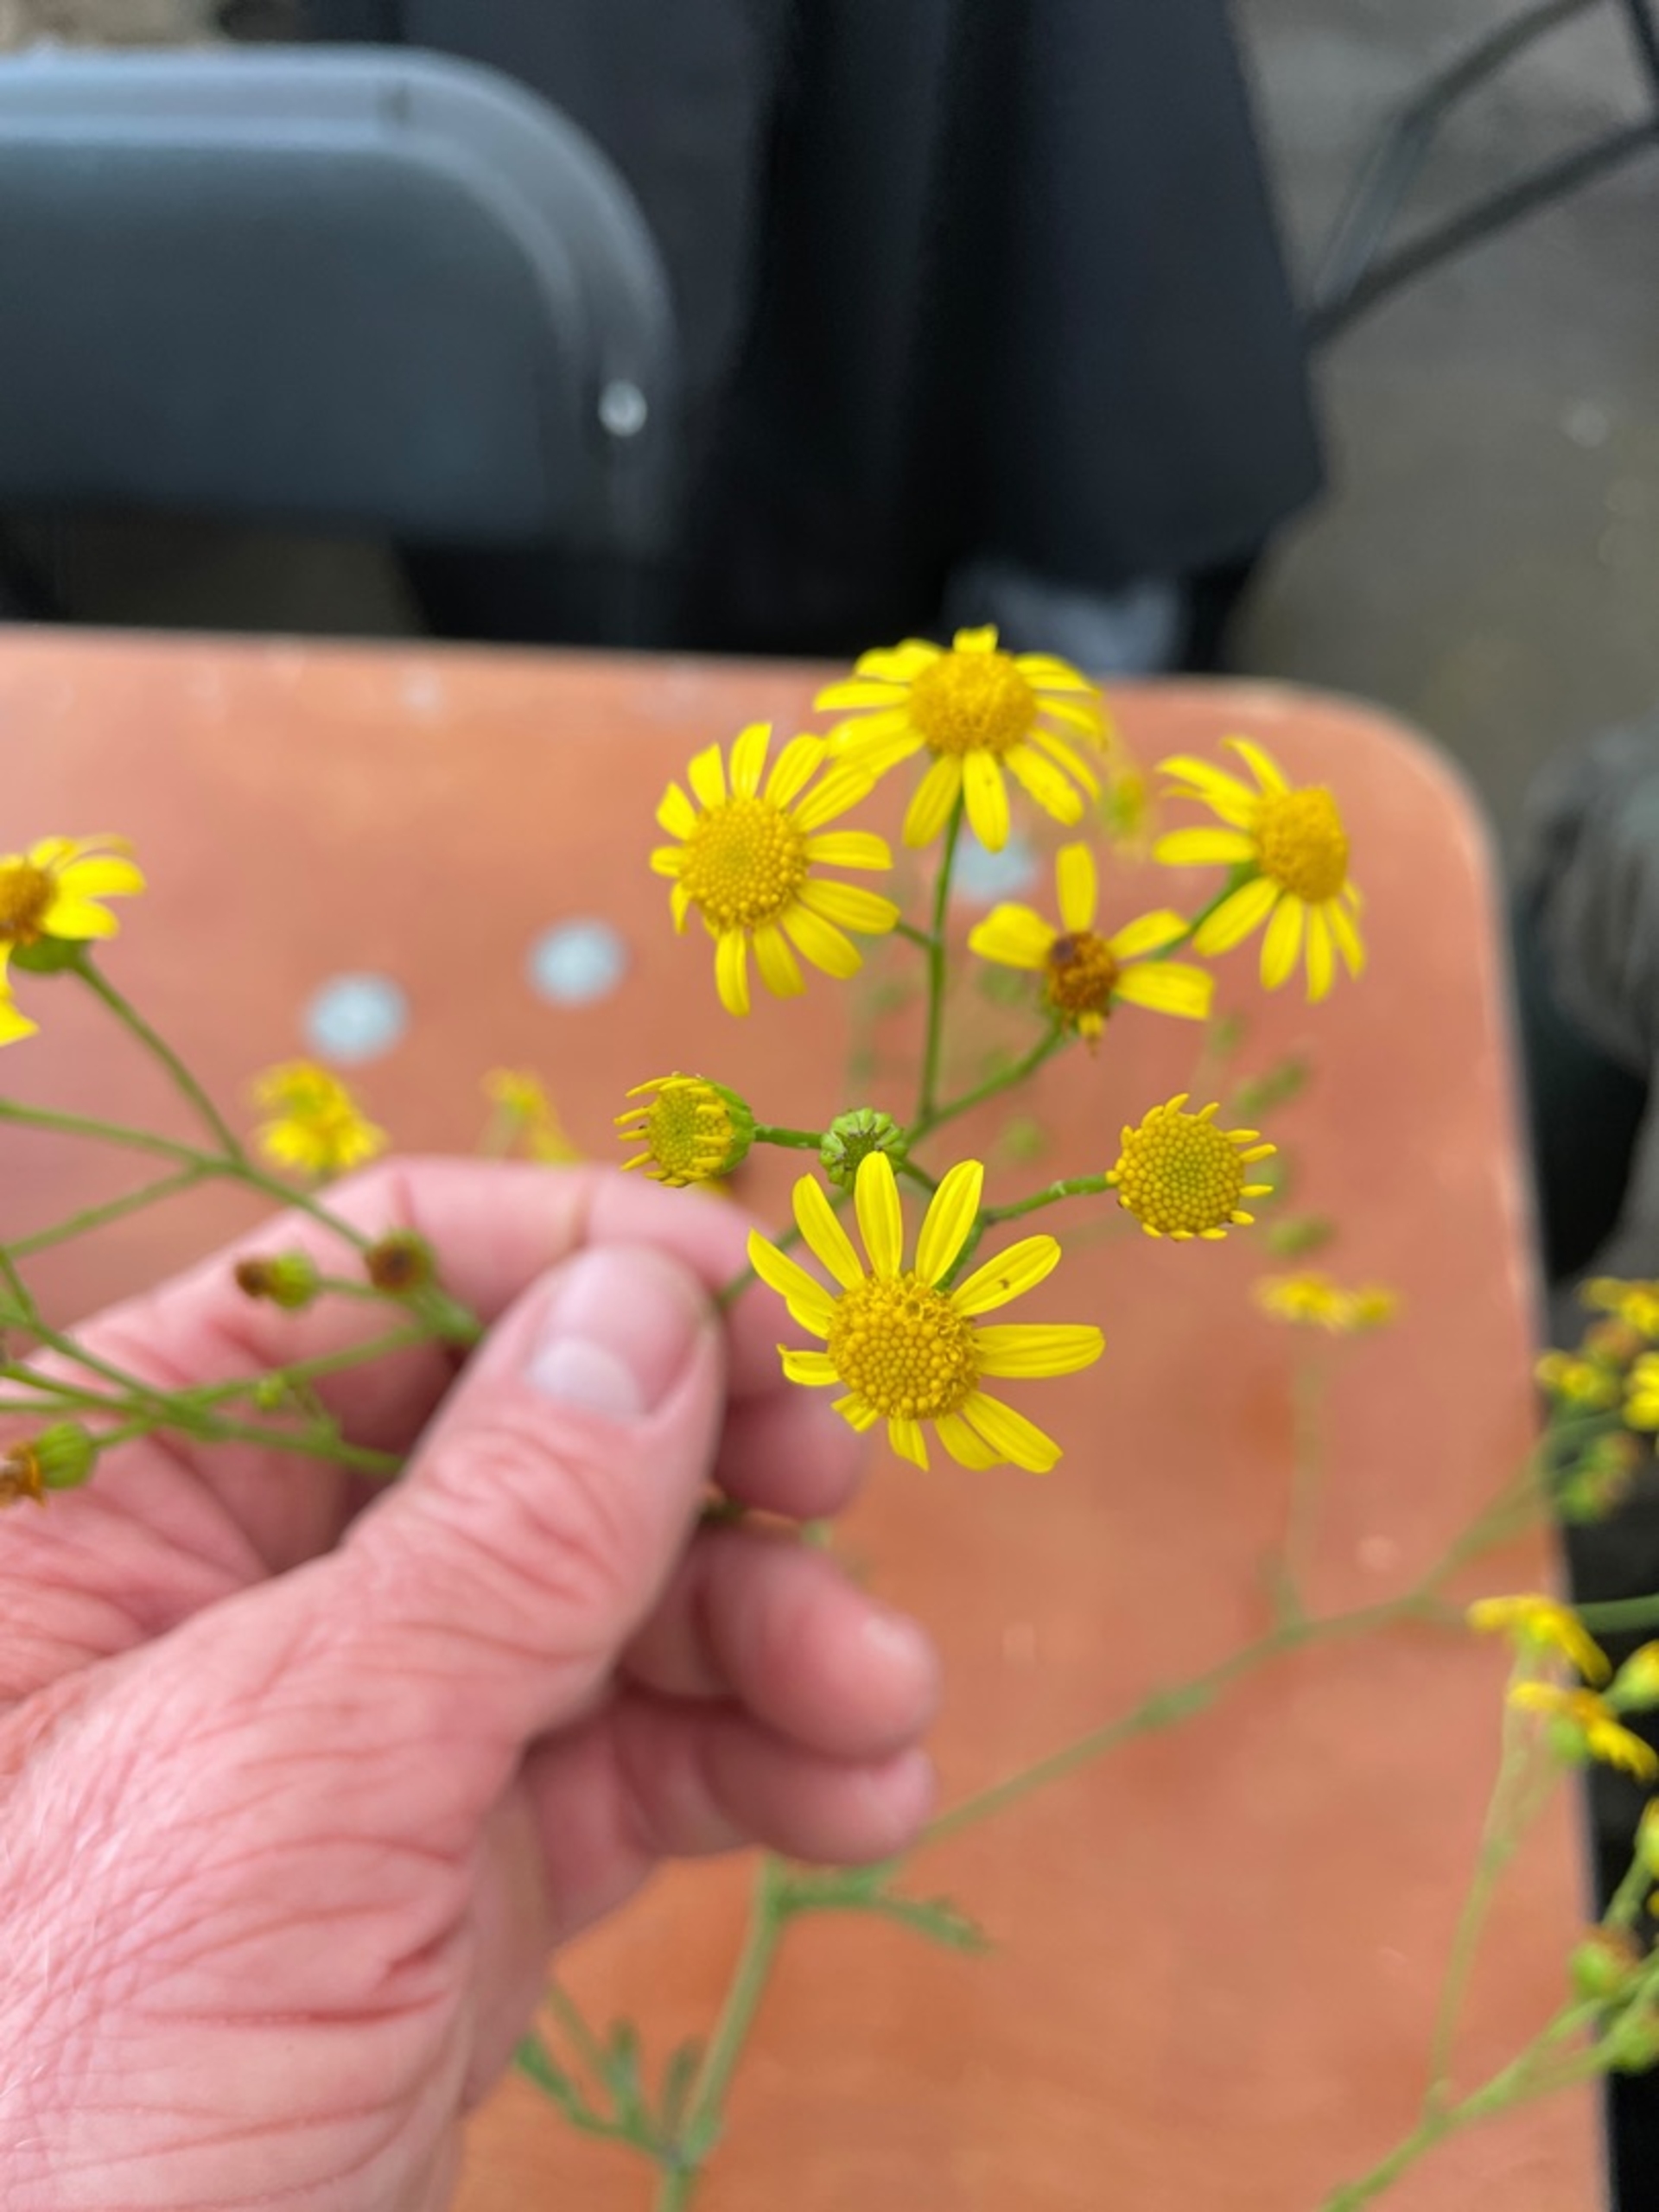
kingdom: Plantae
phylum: Tracheophyta
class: Magnoliopsida
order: Asterales
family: Asteraceae
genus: Jacobaea
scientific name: Jacobaea erratica
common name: Småblomstret brandbæger
